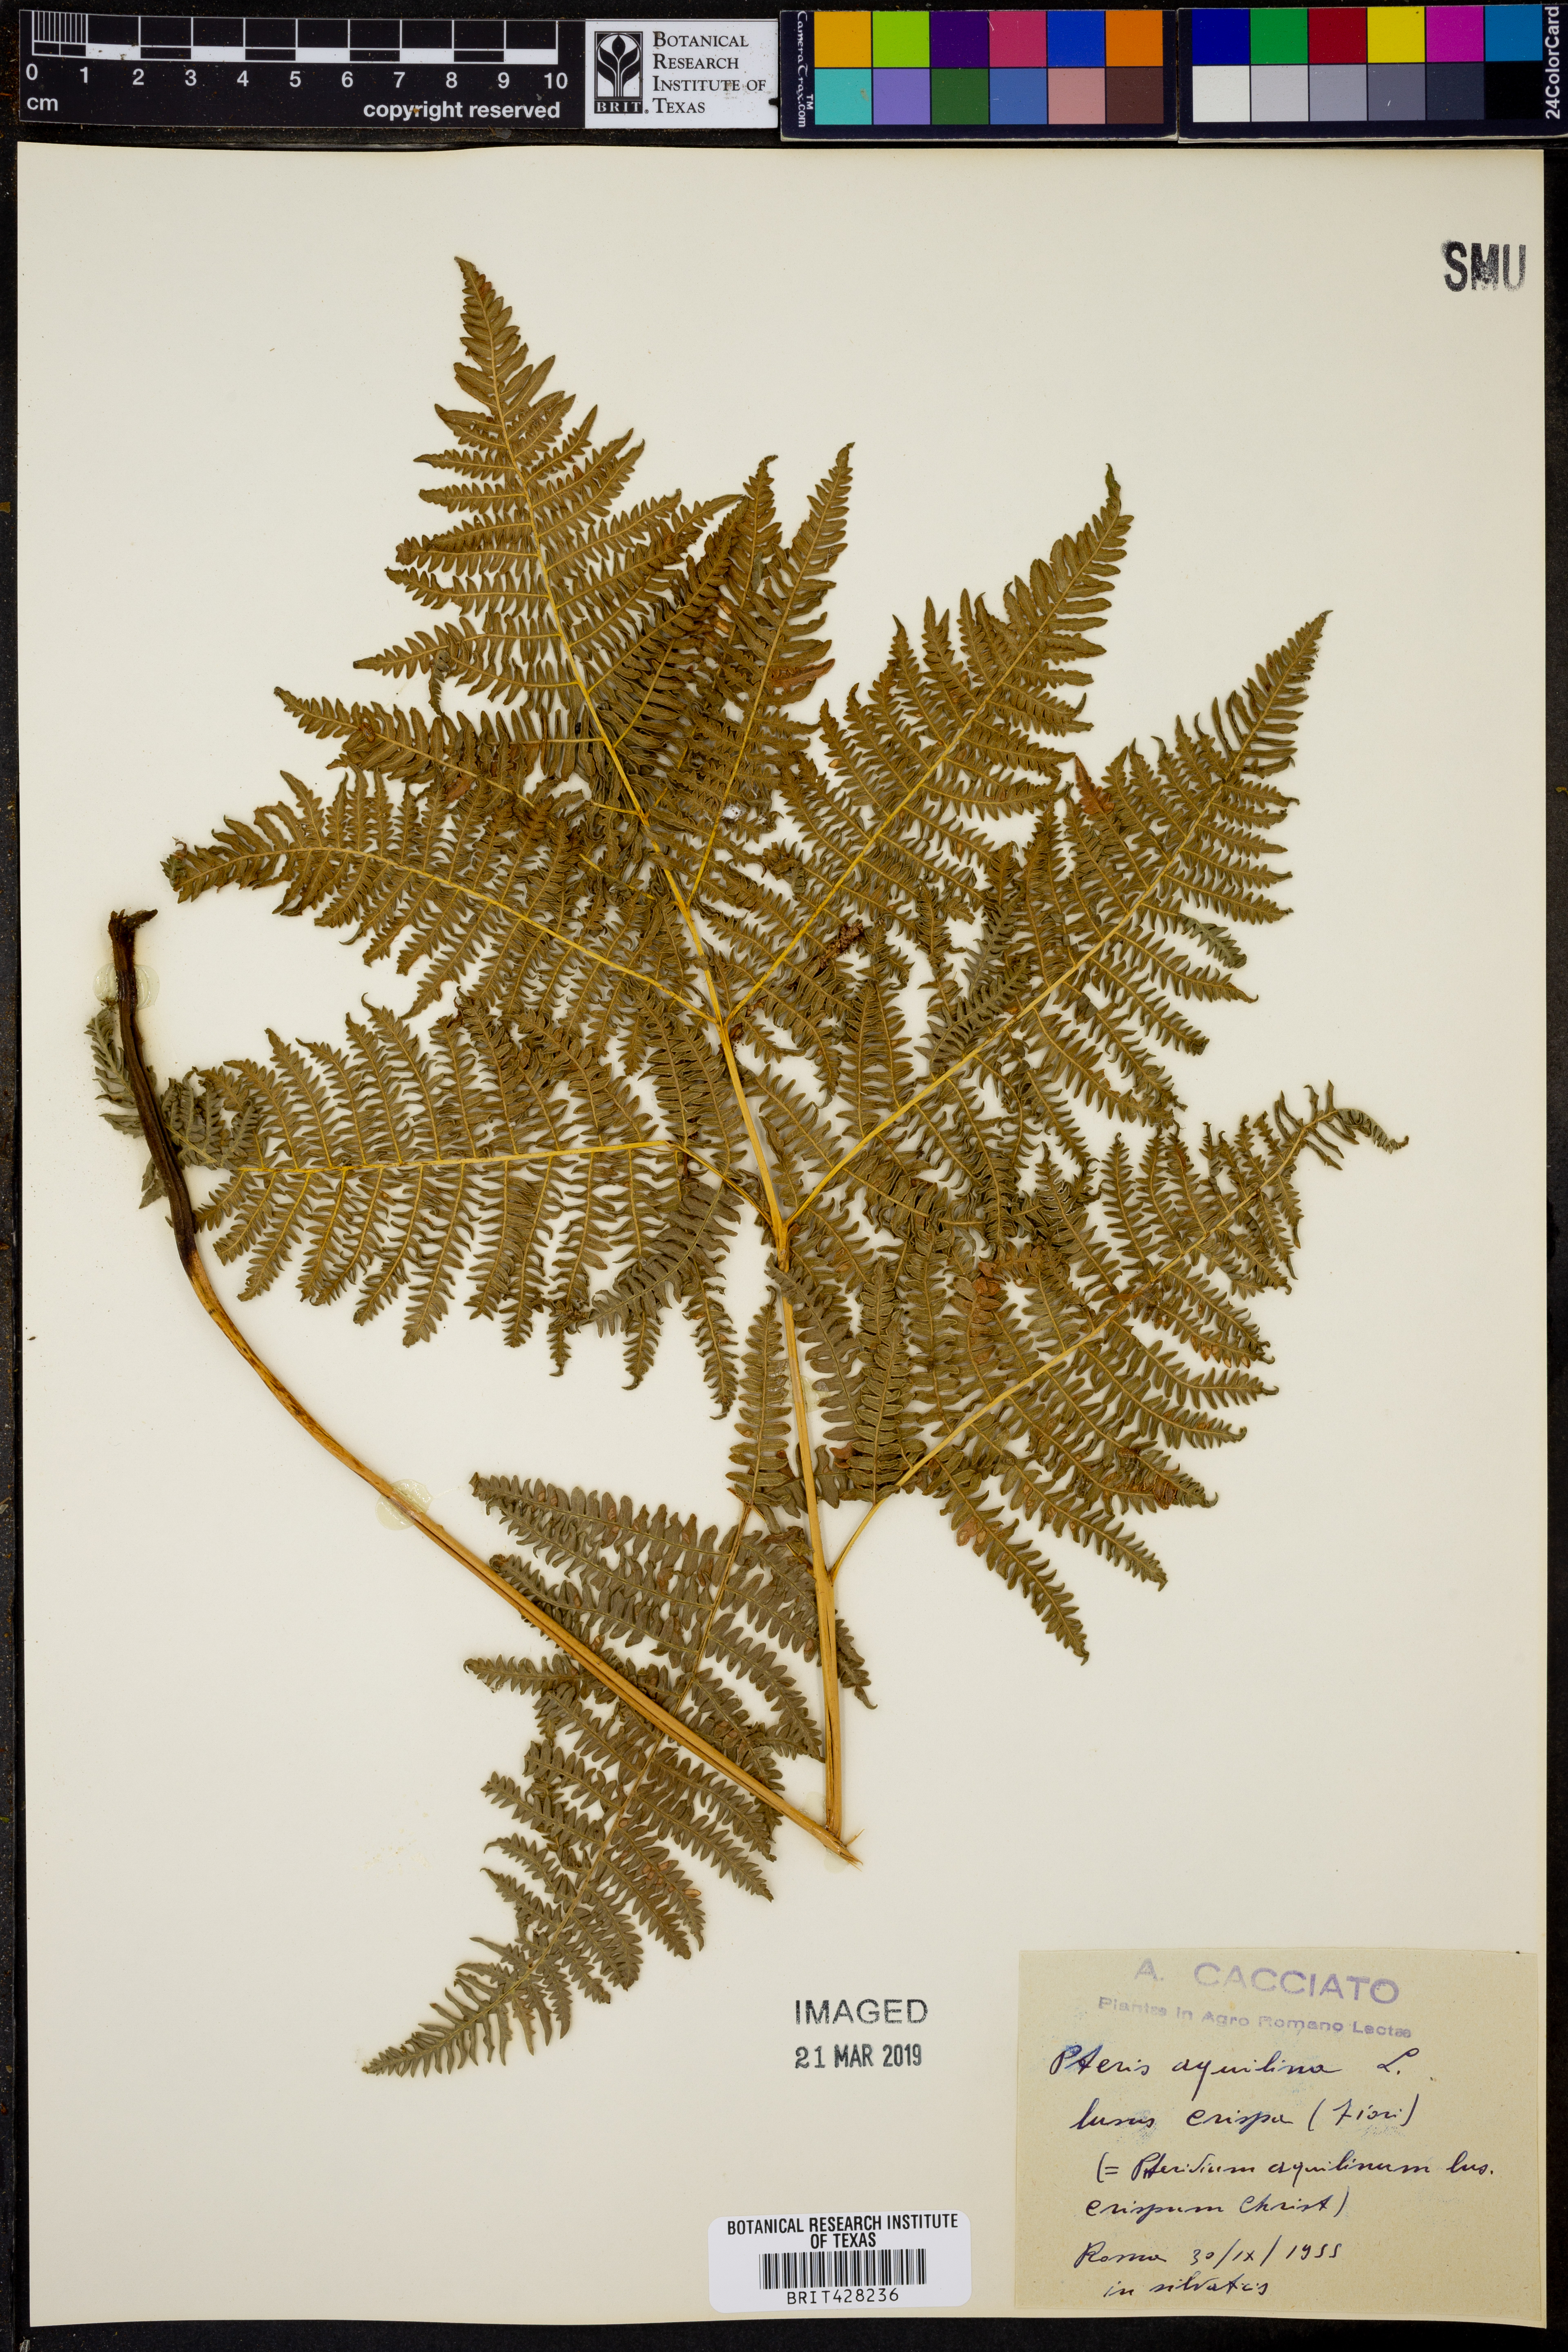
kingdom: Plantae
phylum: Tracheophyta
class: Polypodiopsida
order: Polypodiales
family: Dennstaedtiaceae
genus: Pteridium
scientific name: Pteridium aquilinum
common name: Bracken
